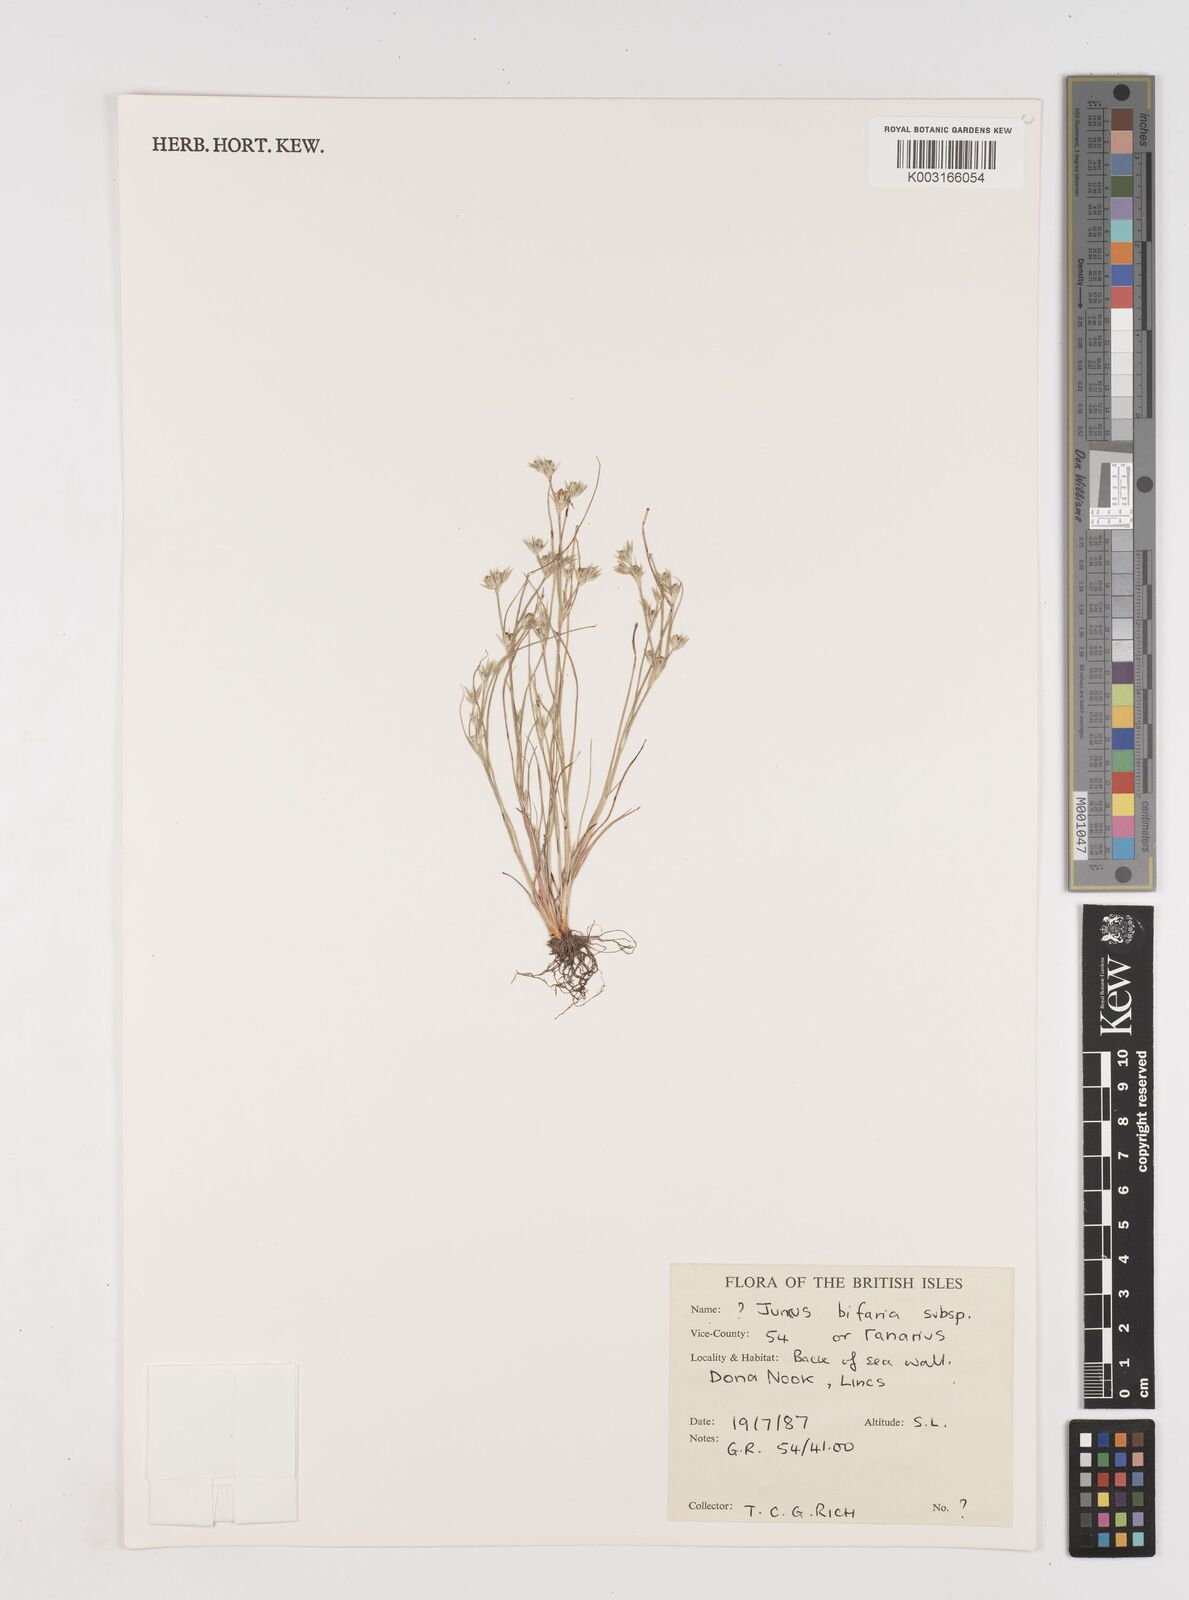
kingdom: Plantae
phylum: Tracheophyta
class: Liliopsida
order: Poales
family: Juncaceae
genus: Juncus
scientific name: Juncus hybridus
